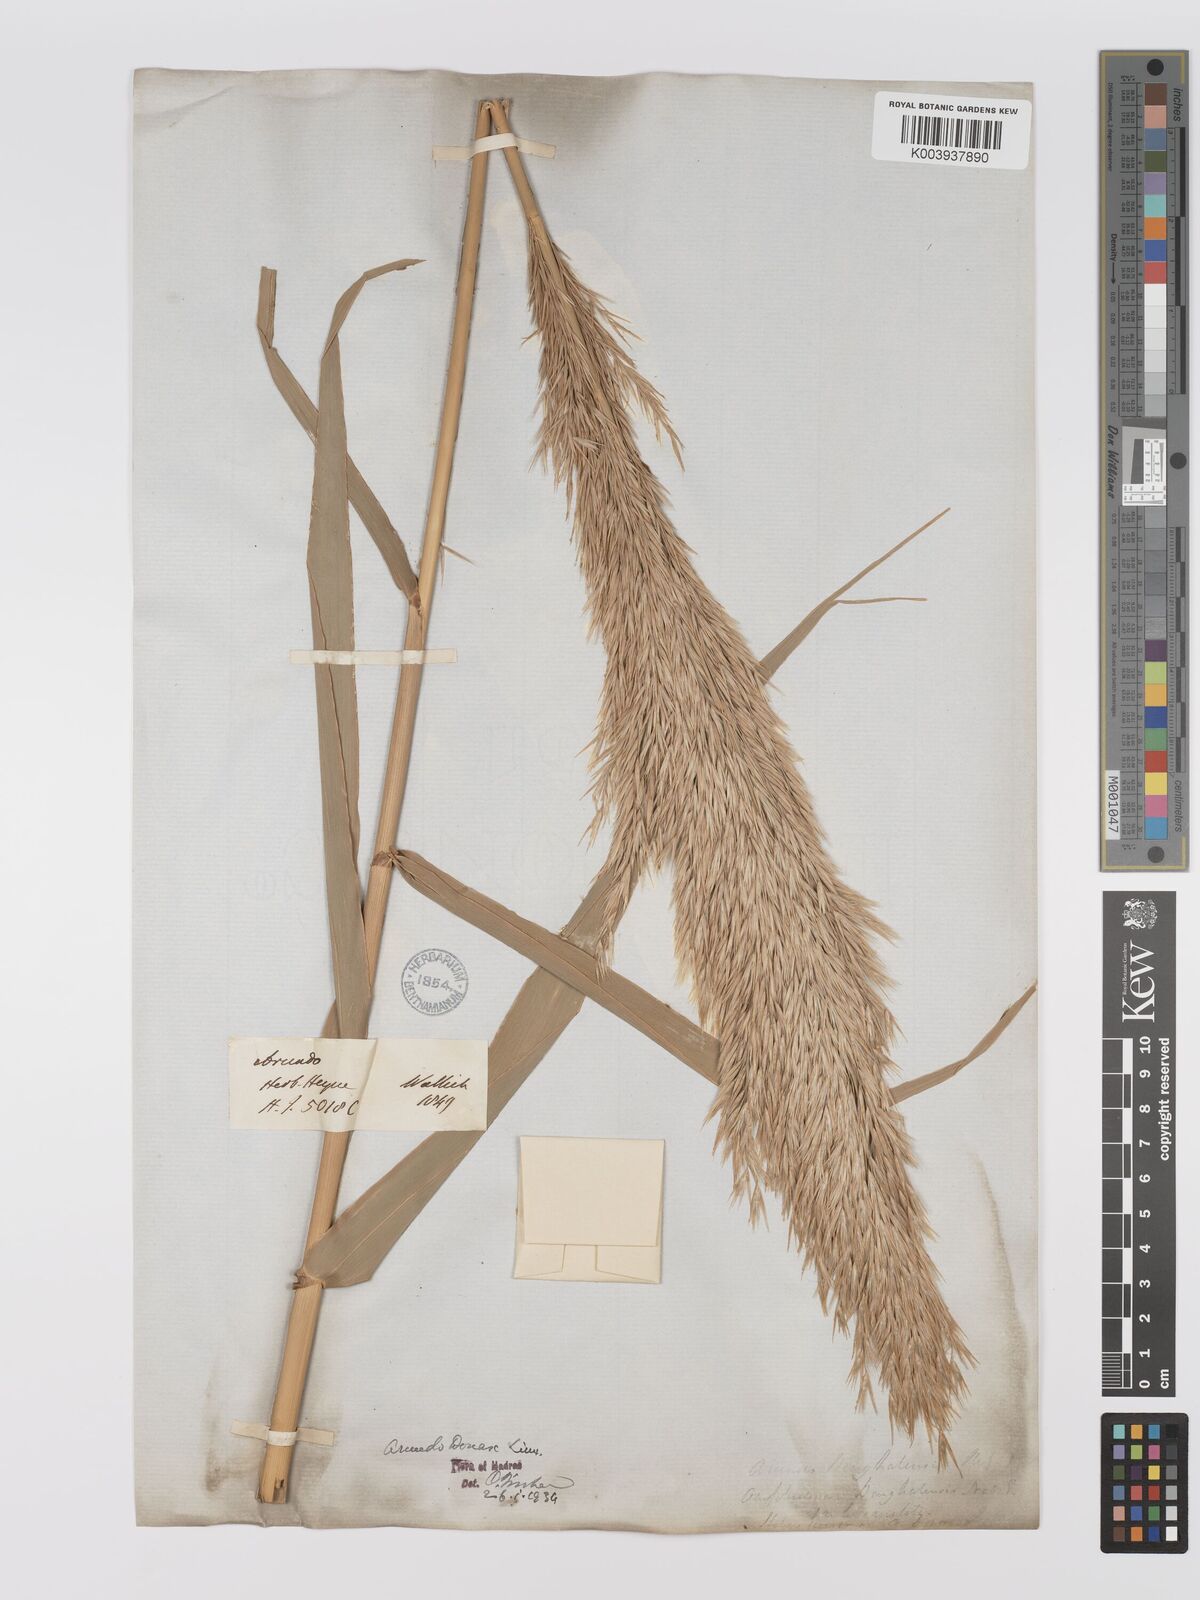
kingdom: Plantae
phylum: Tracheophyta
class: Liliopsida
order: Poales
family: Poaceae
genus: Arundo
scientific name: Arundo
